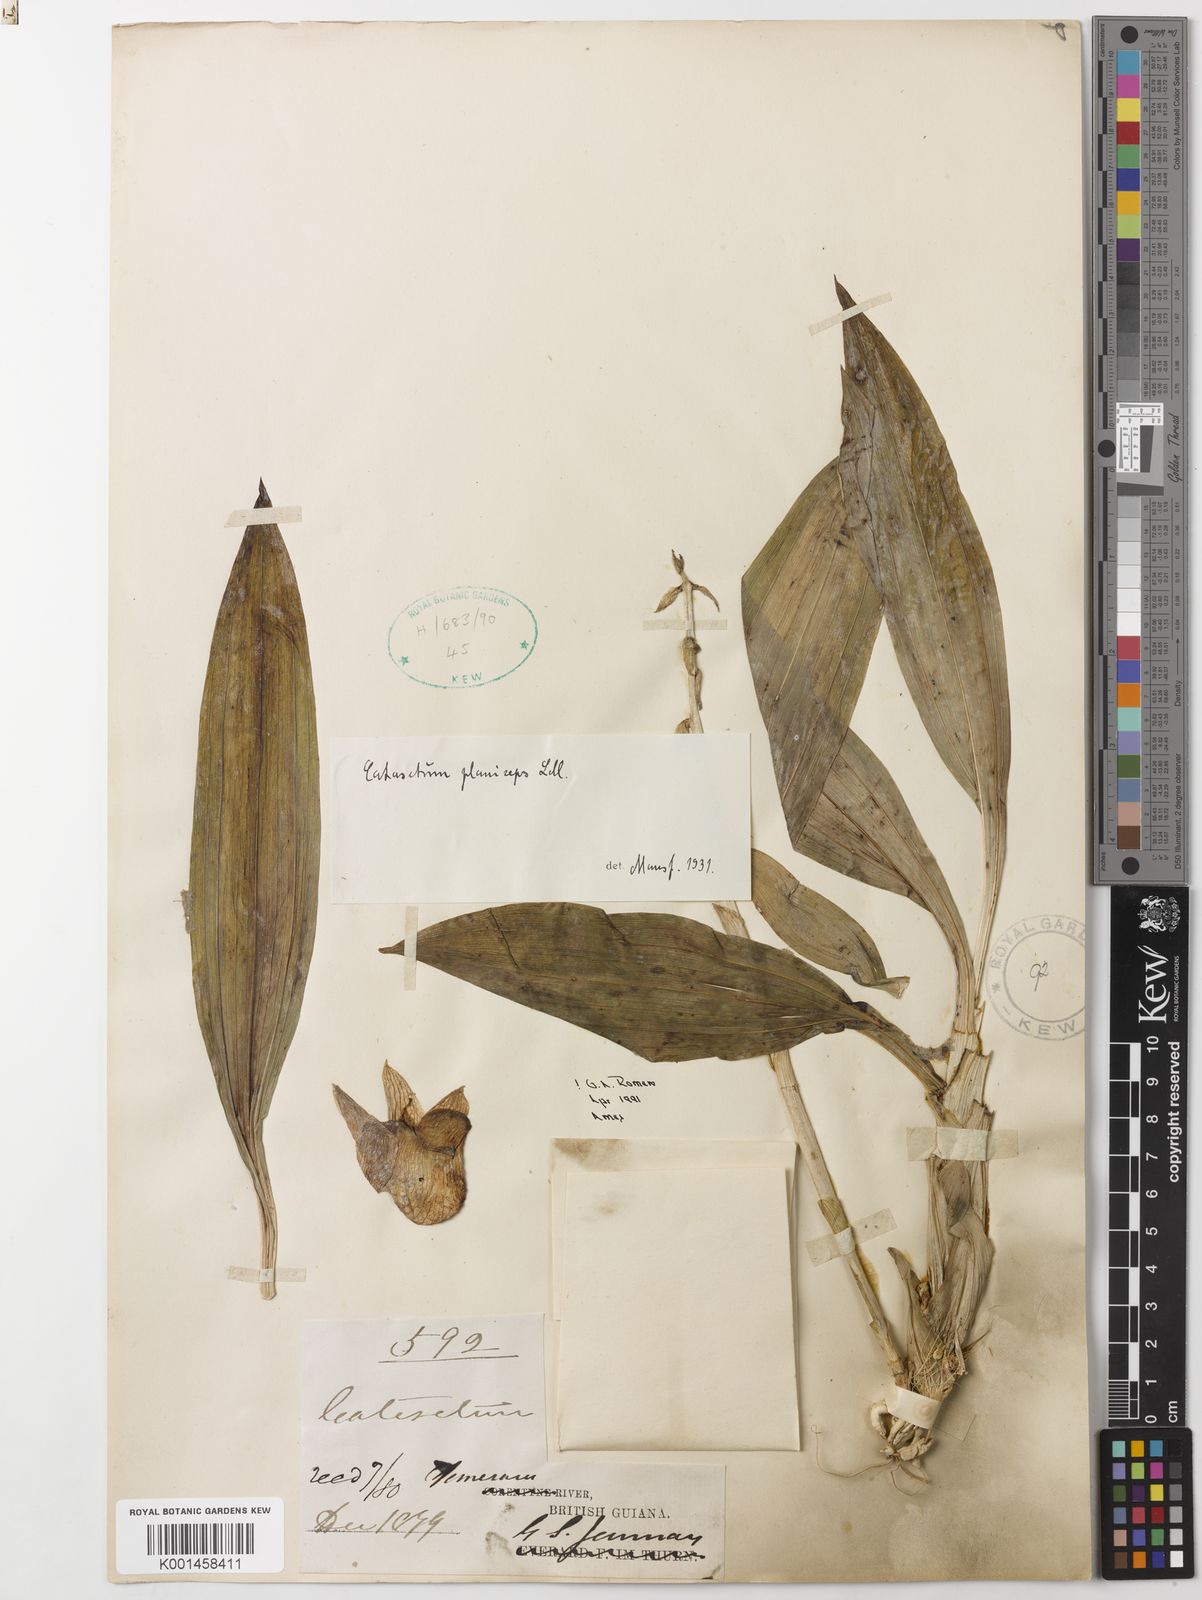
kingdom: Plantae
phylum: Tracheophyta
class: Liliopsida
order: Asparagales
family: Orchidaceae
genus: Catasetum
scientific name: Catasetum planiceps
